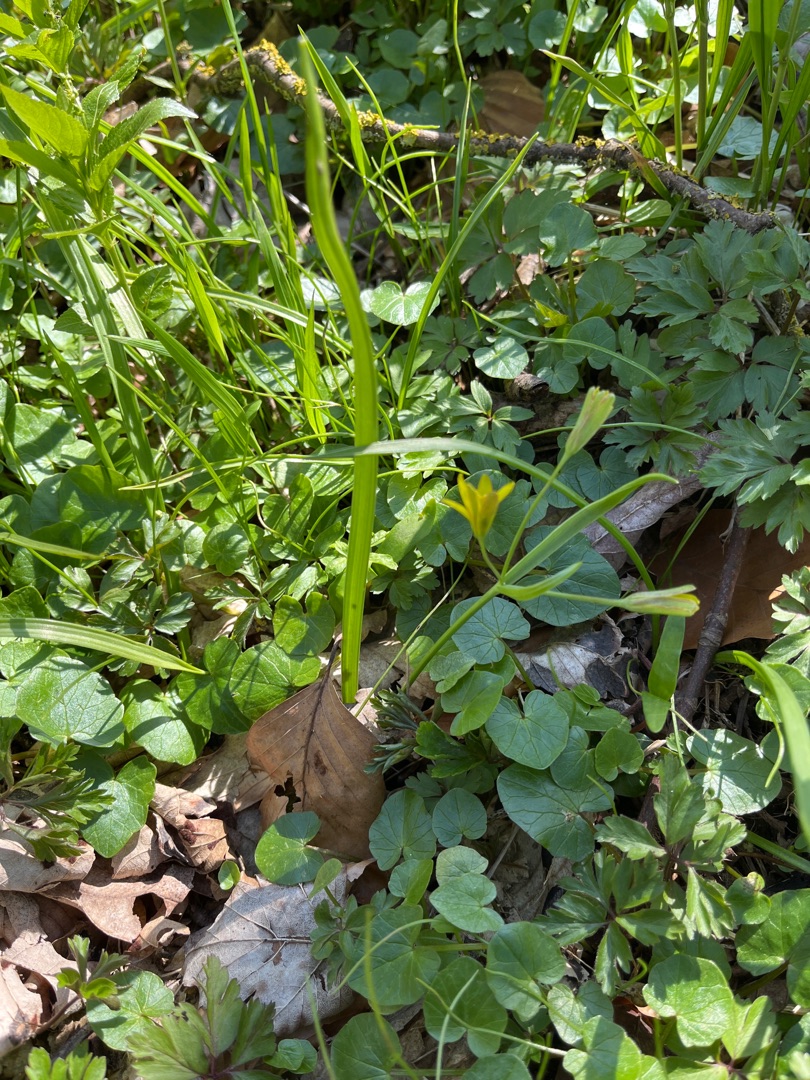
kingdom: Plantae
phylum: Tracheophyta
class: Liliopsida
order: Liliales
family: Liliaceae
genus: Gagea
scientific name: Gagea lutea
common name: Almindelig guldstjerne
